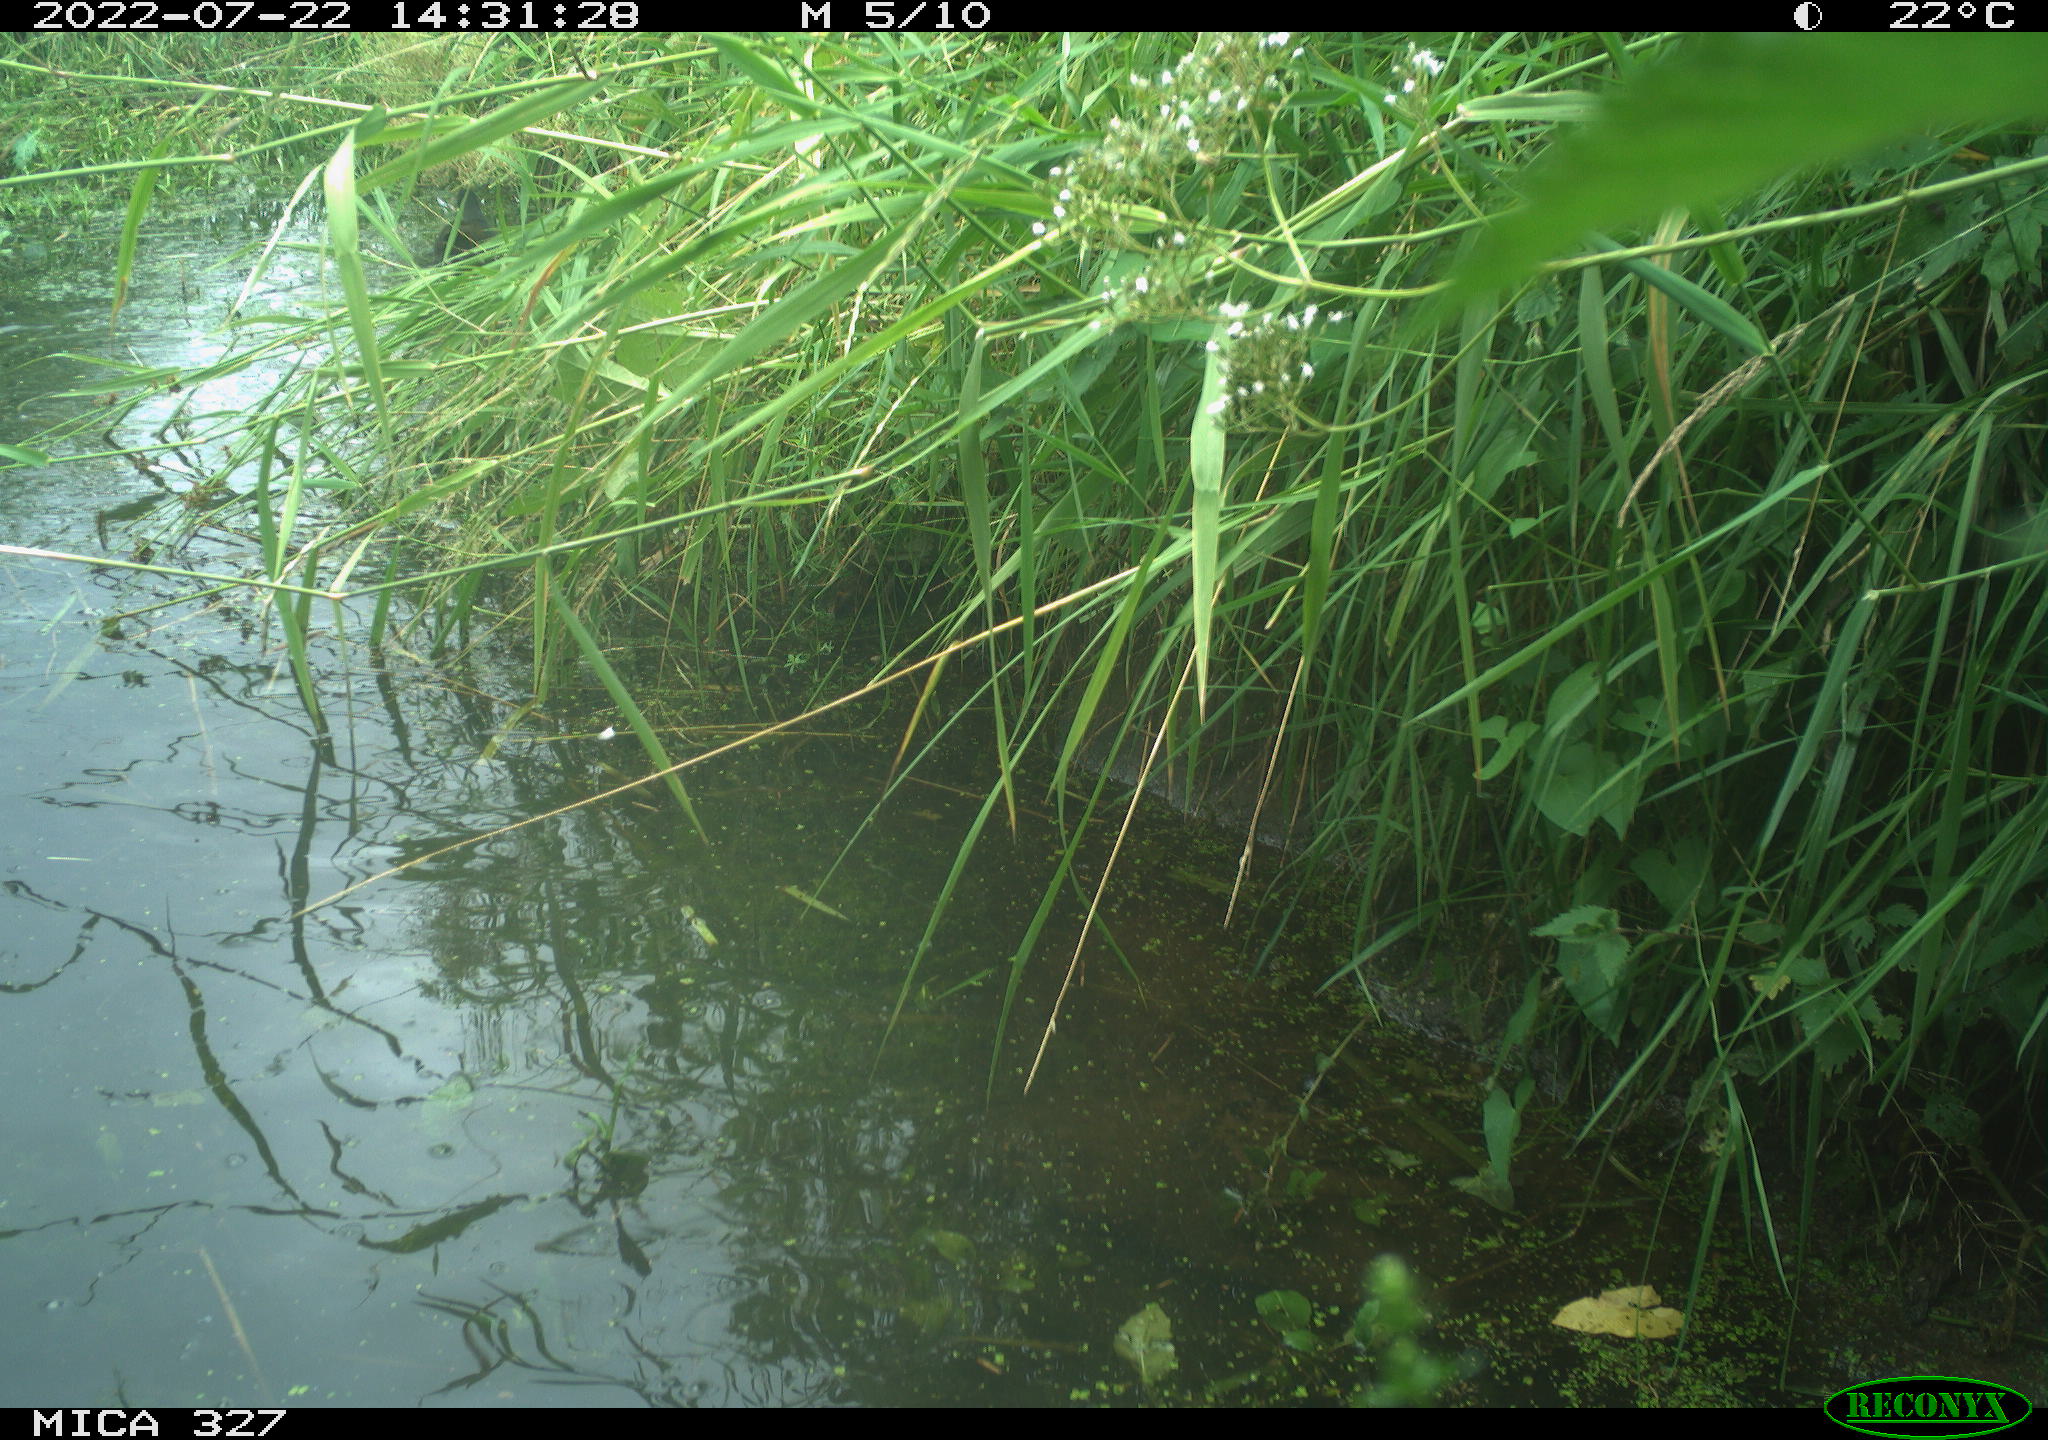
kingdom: Animalia
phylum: Chordata
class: Aves
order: Gruiformes
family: Rallidae
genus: Gallinula
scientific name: Gallinula chloropus
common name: Common moorhen
